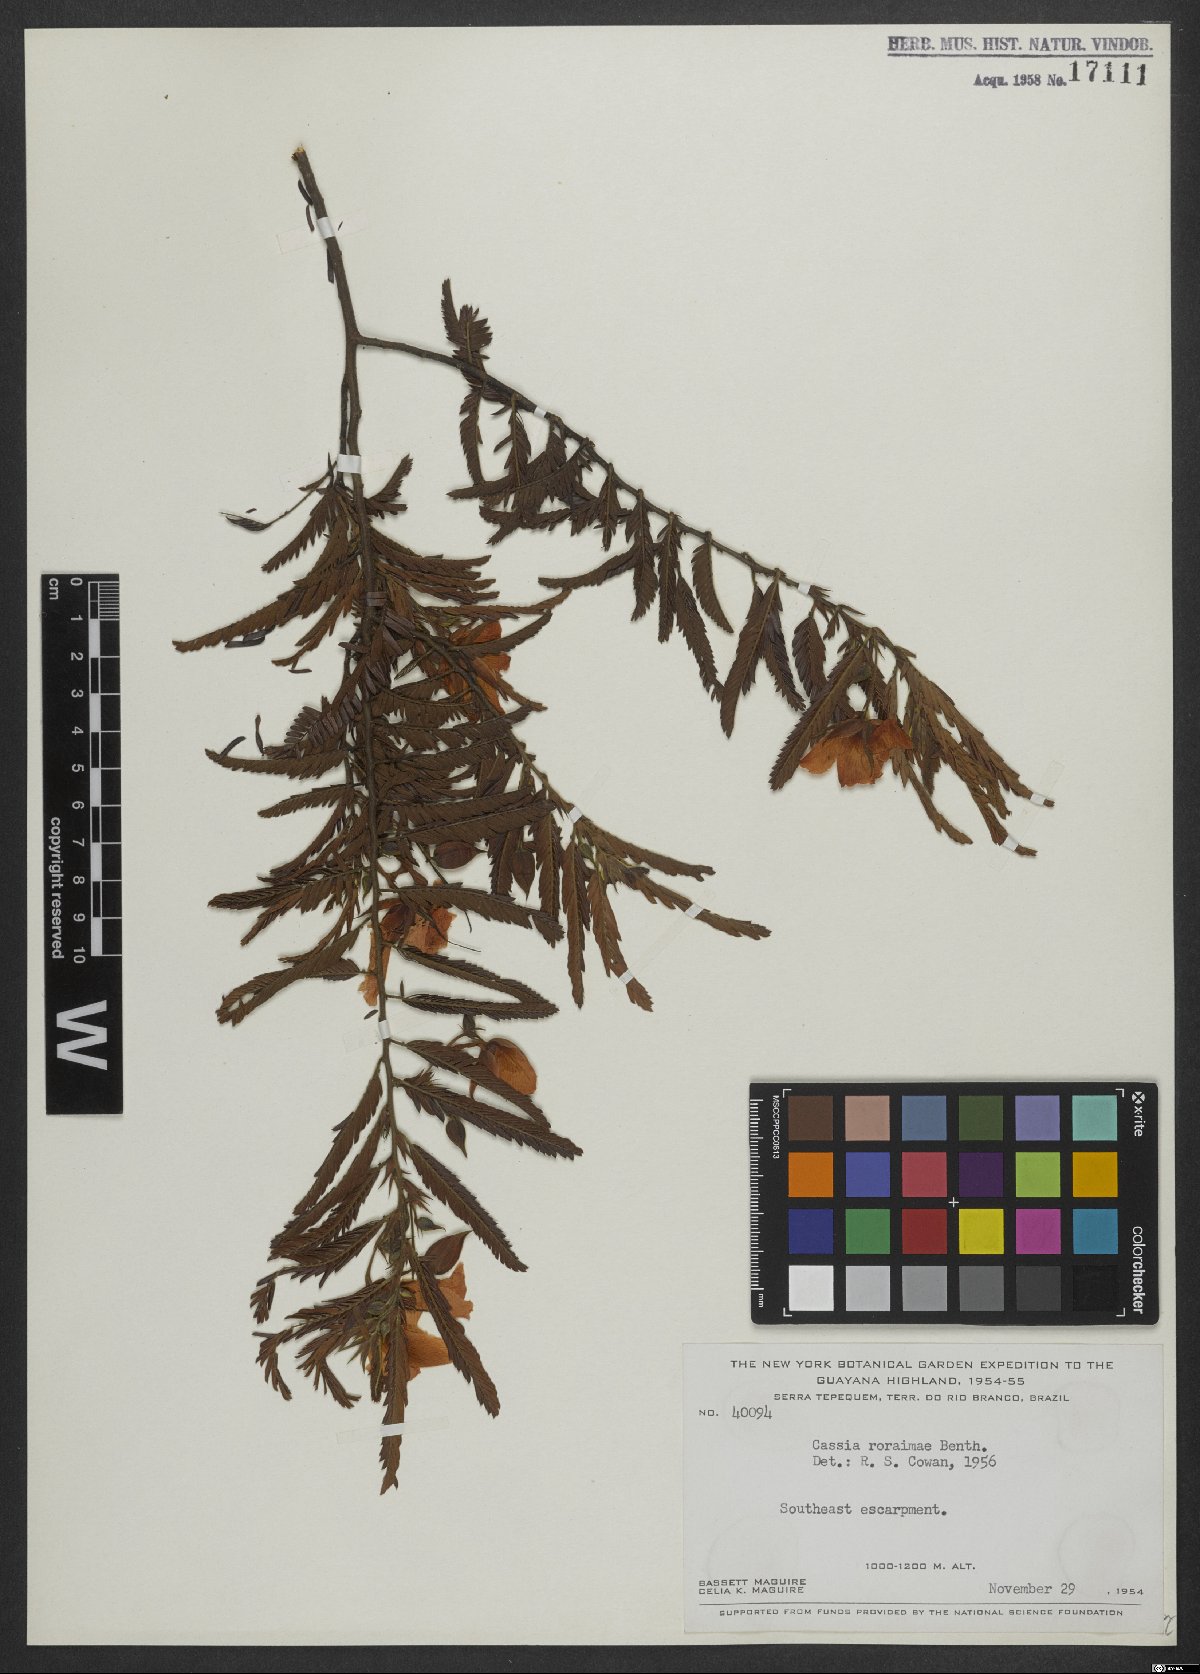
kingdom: Plantae
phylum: Tracheophyta
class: Magnoliopsida
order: Fabales
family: Fabaceae
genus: Chamaecrista
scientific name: Chamaecrista roraimae
